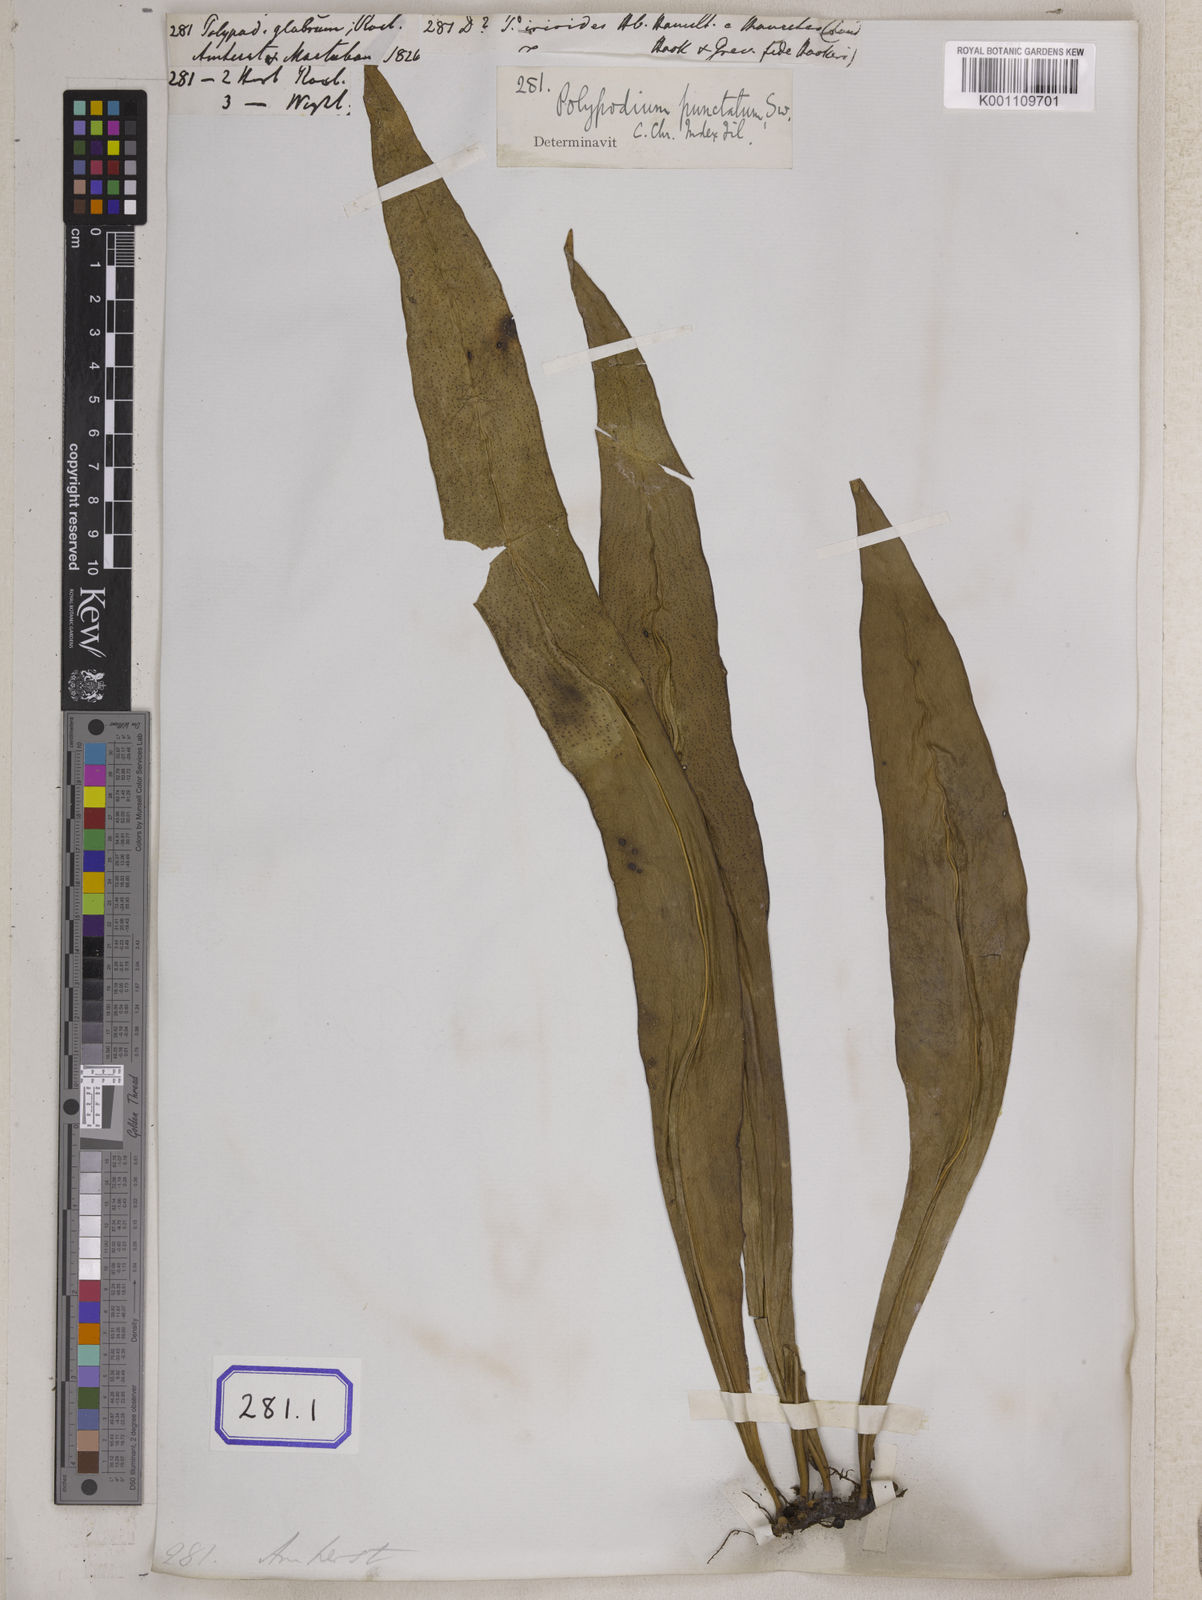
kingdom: Plantae
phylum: Tracheophyta
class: Polypodiopsida
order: Polypodiales
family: Polypodiaceae
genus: Microsorum
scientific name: Microsorum punctatum
